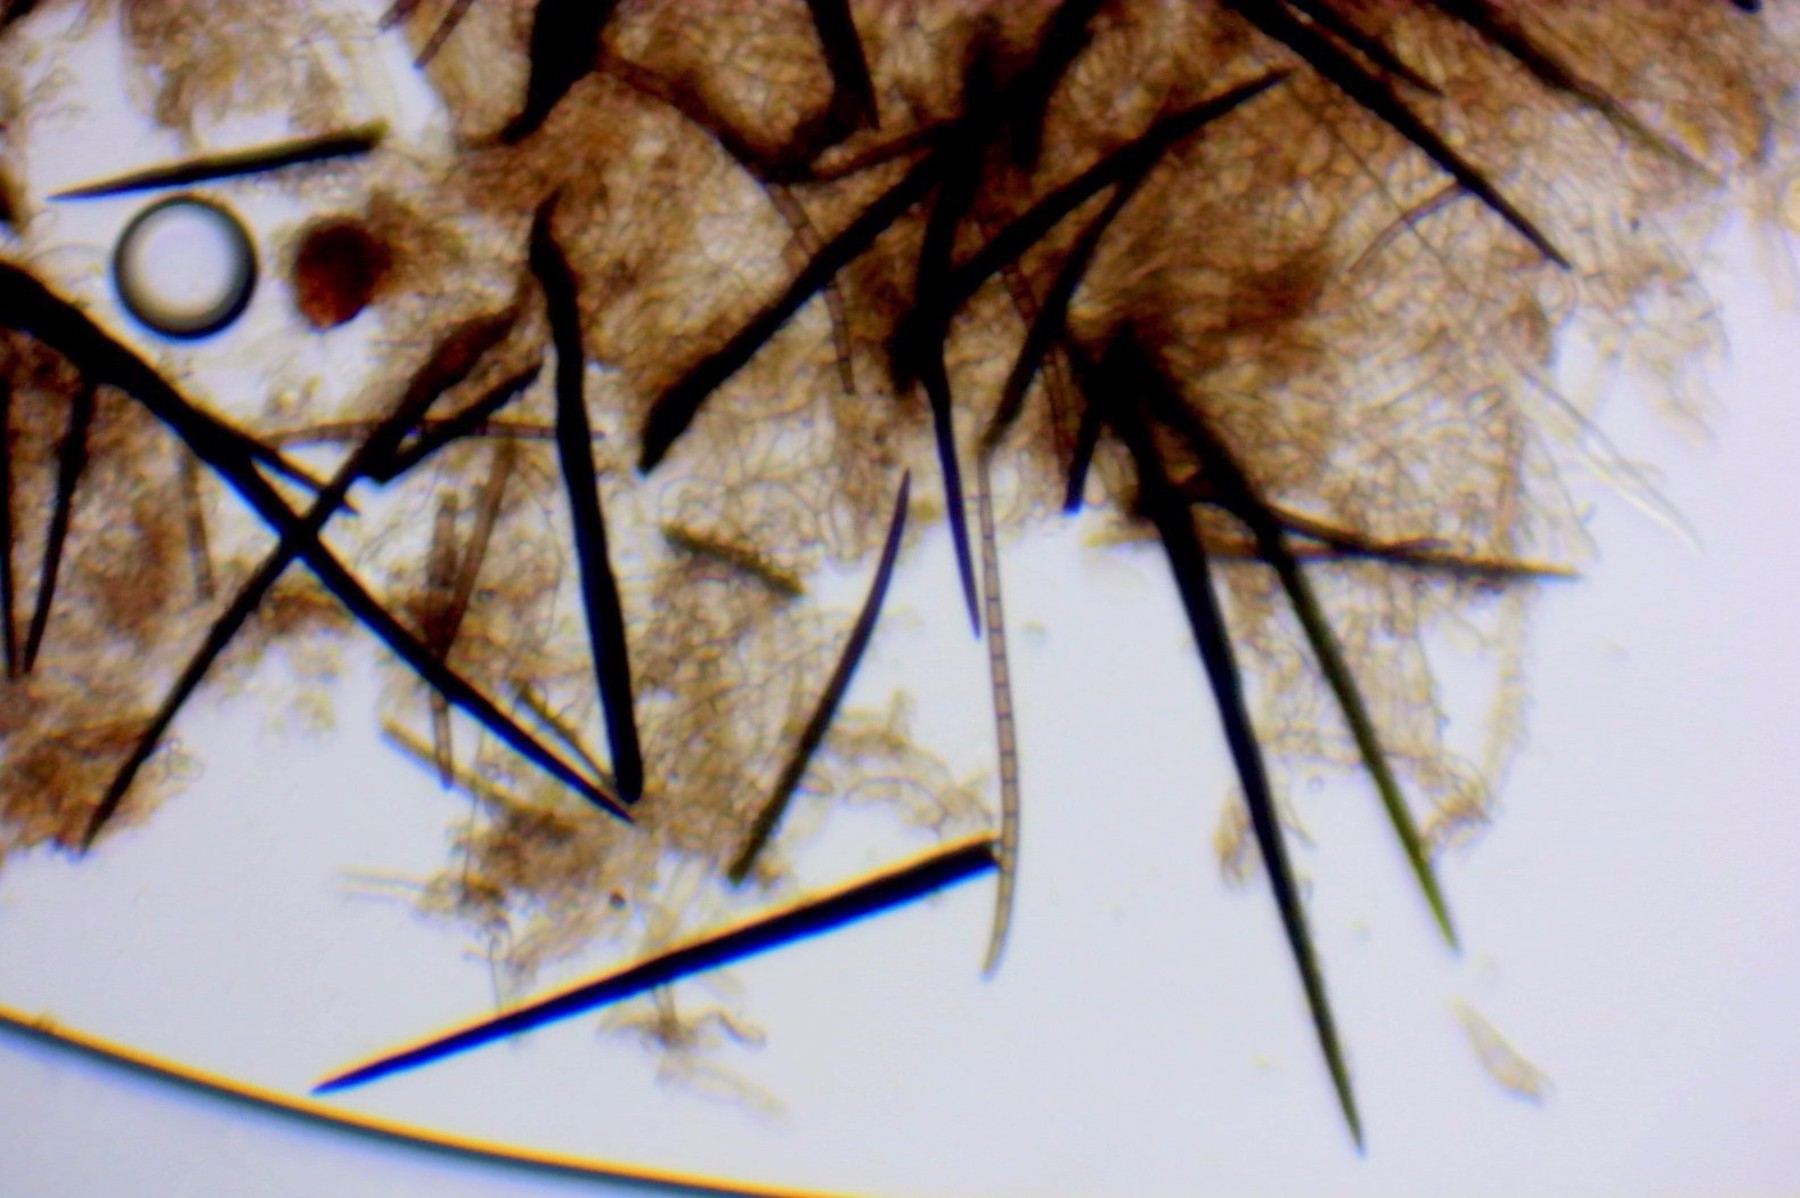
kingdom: Fungi
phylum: Ascomycota
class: Geoglossomycetes
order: Geoglossales
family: Geoglossaceae
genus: Trichoglossum
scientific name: Trichoglossum hirsutum
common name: håret jordtunge
